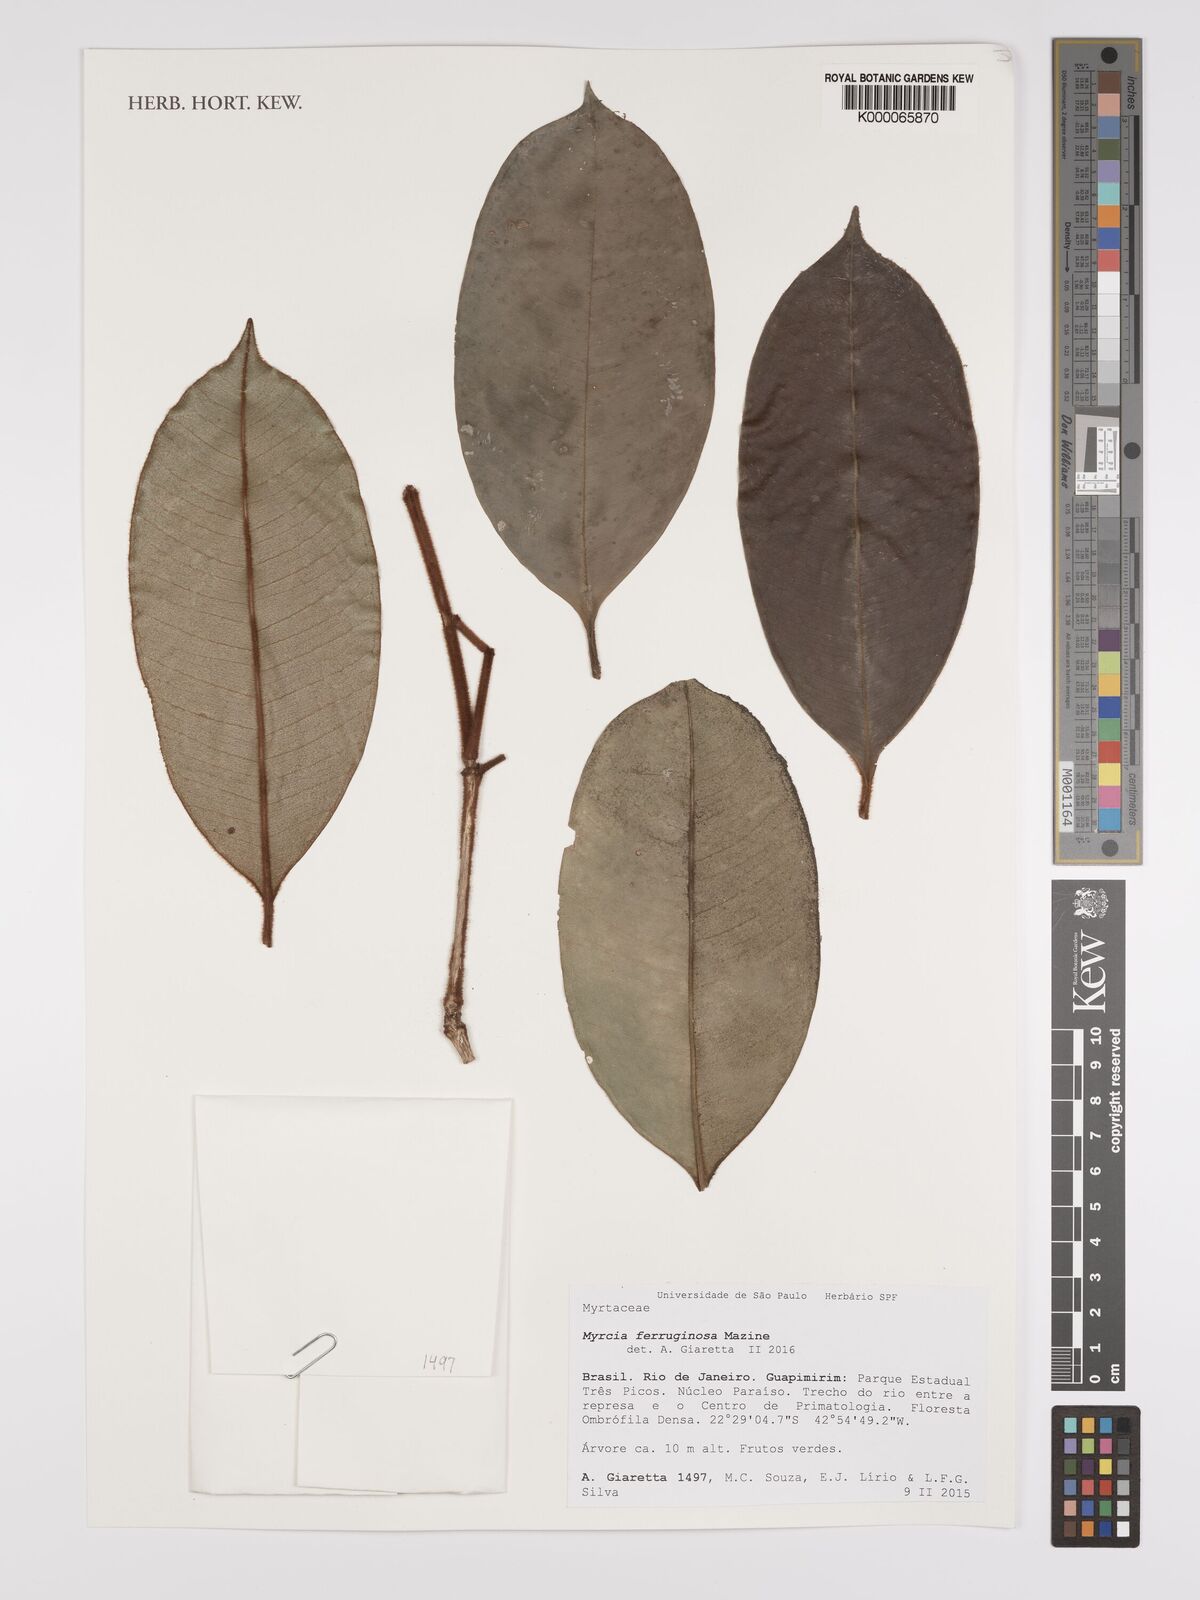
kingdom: Plantae
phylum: Tracheophyta
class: Magnoliopsida
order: Myrtales
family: Myrtaceae
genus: Myrcia
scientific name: Myrcia ferruginosa
